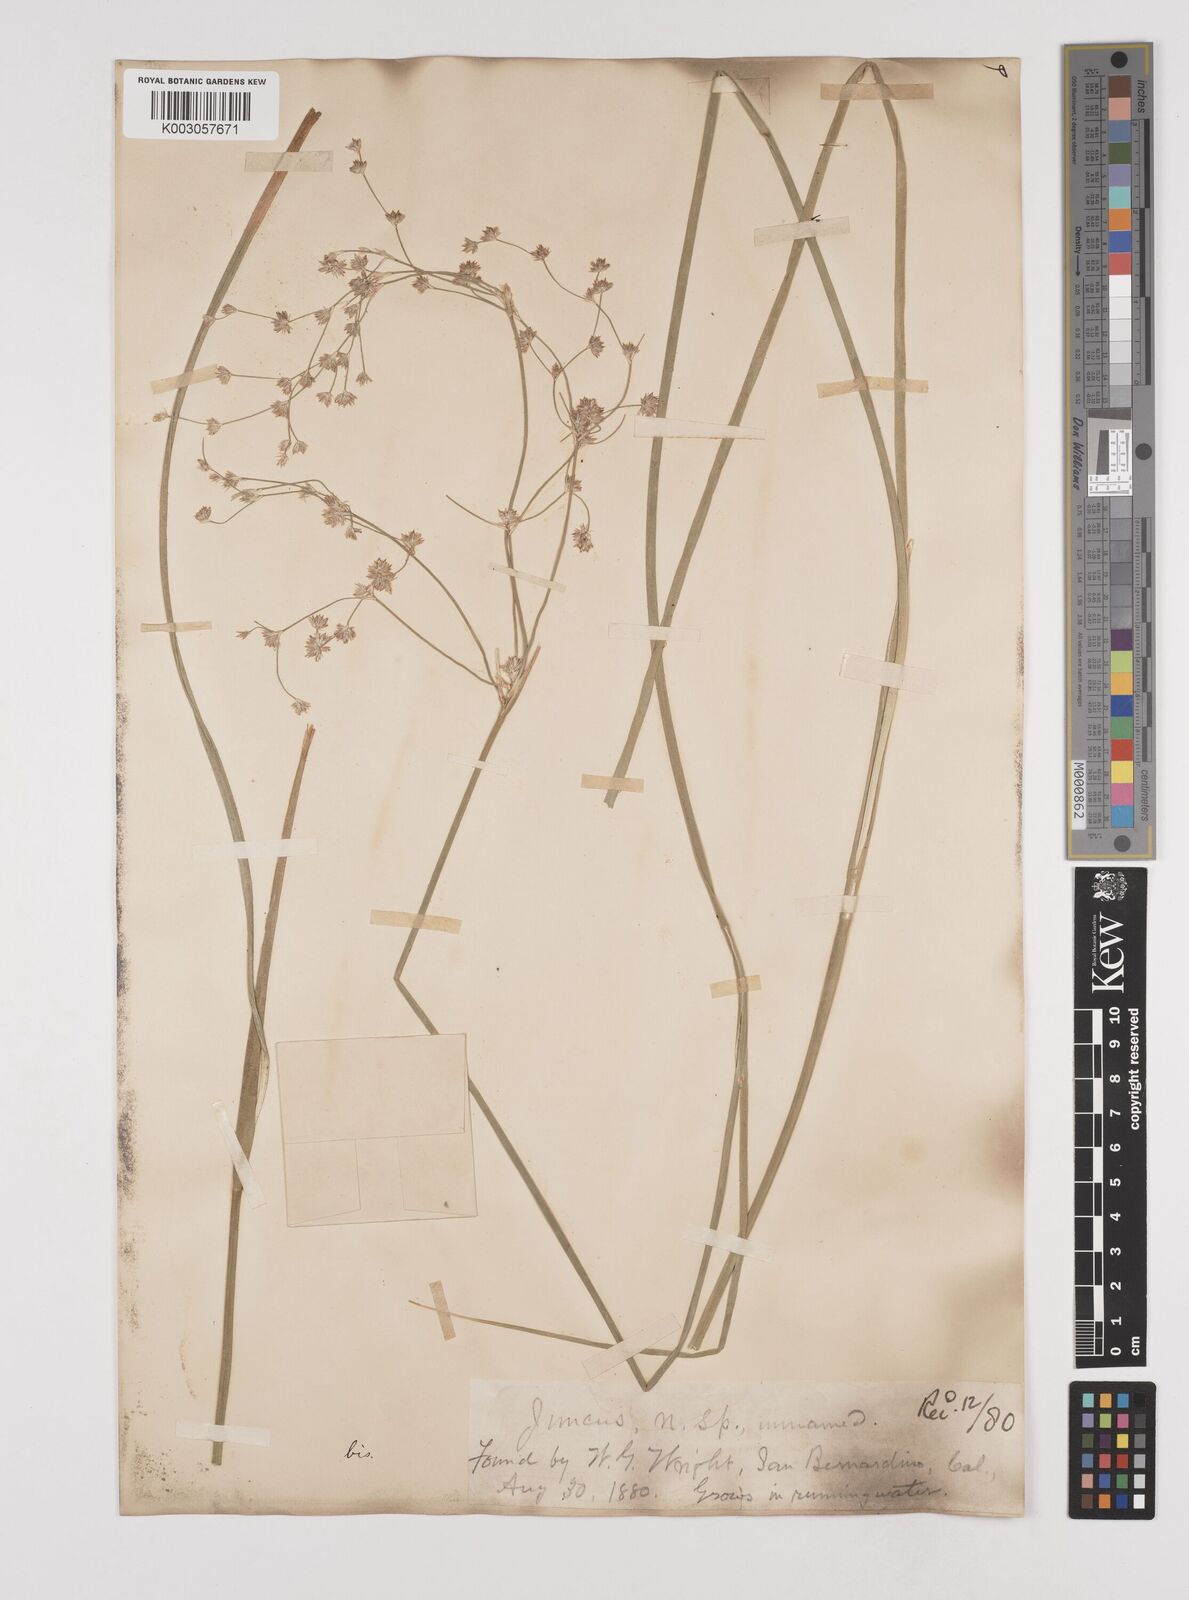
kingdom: Plantae
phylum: Tracheophyta
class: Liliopsida
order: Poales
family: Juncaceae
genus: Juncus
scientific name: Juncus rugulosus
